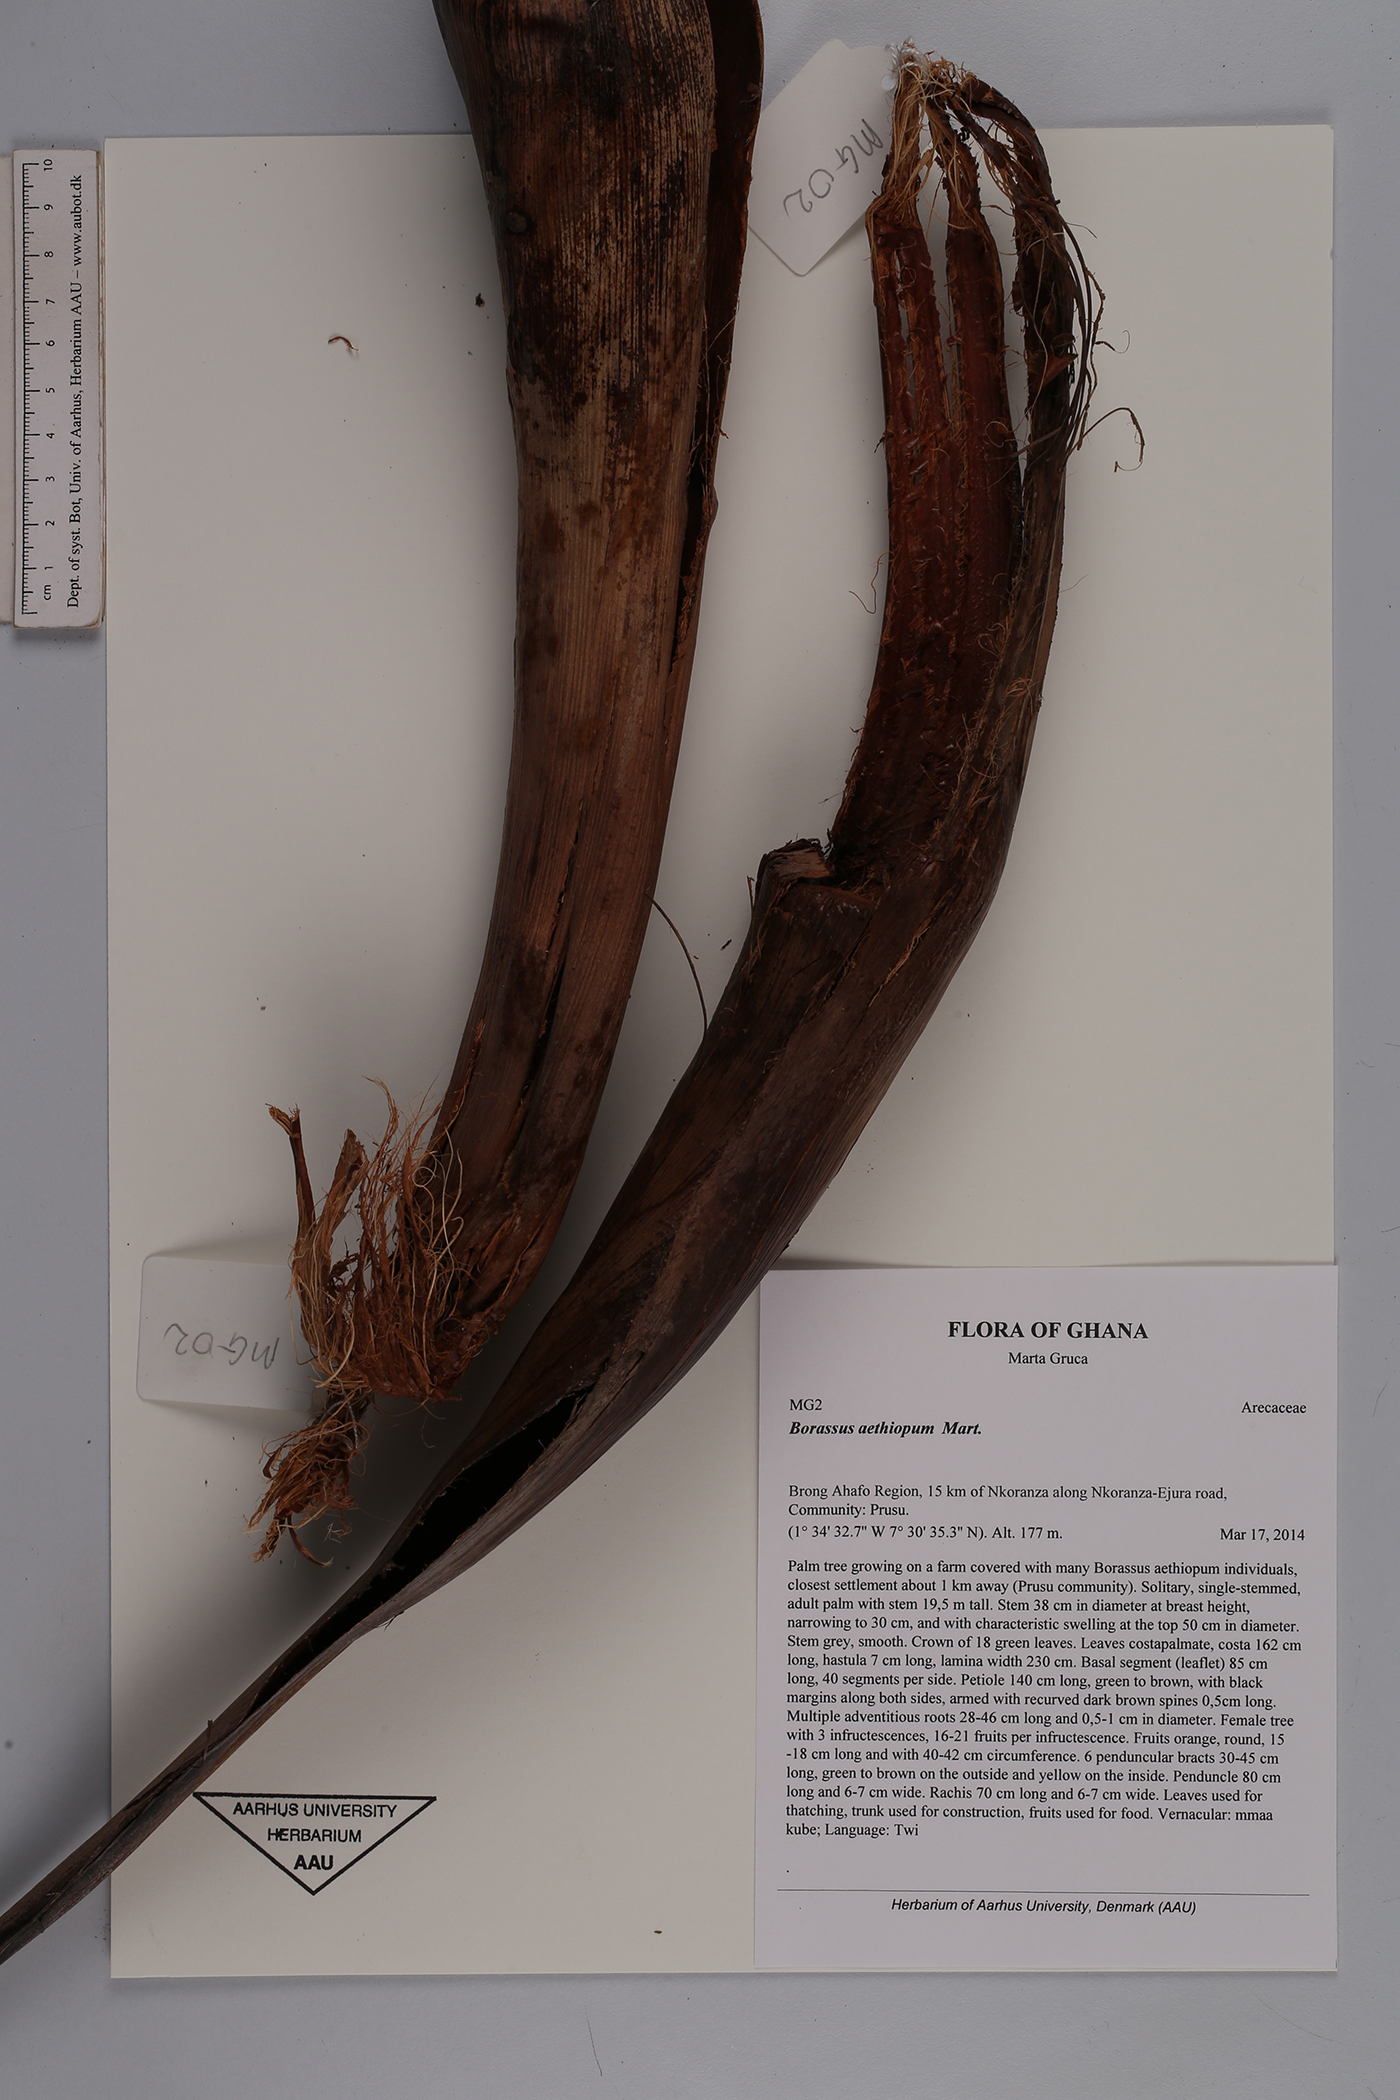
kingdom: Plantae
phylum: Tracheophyta
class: Liliopsida
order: Arecales
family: Arecaceae
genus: Borassus
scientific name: Borassus aethiopum
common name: Elephant palm
